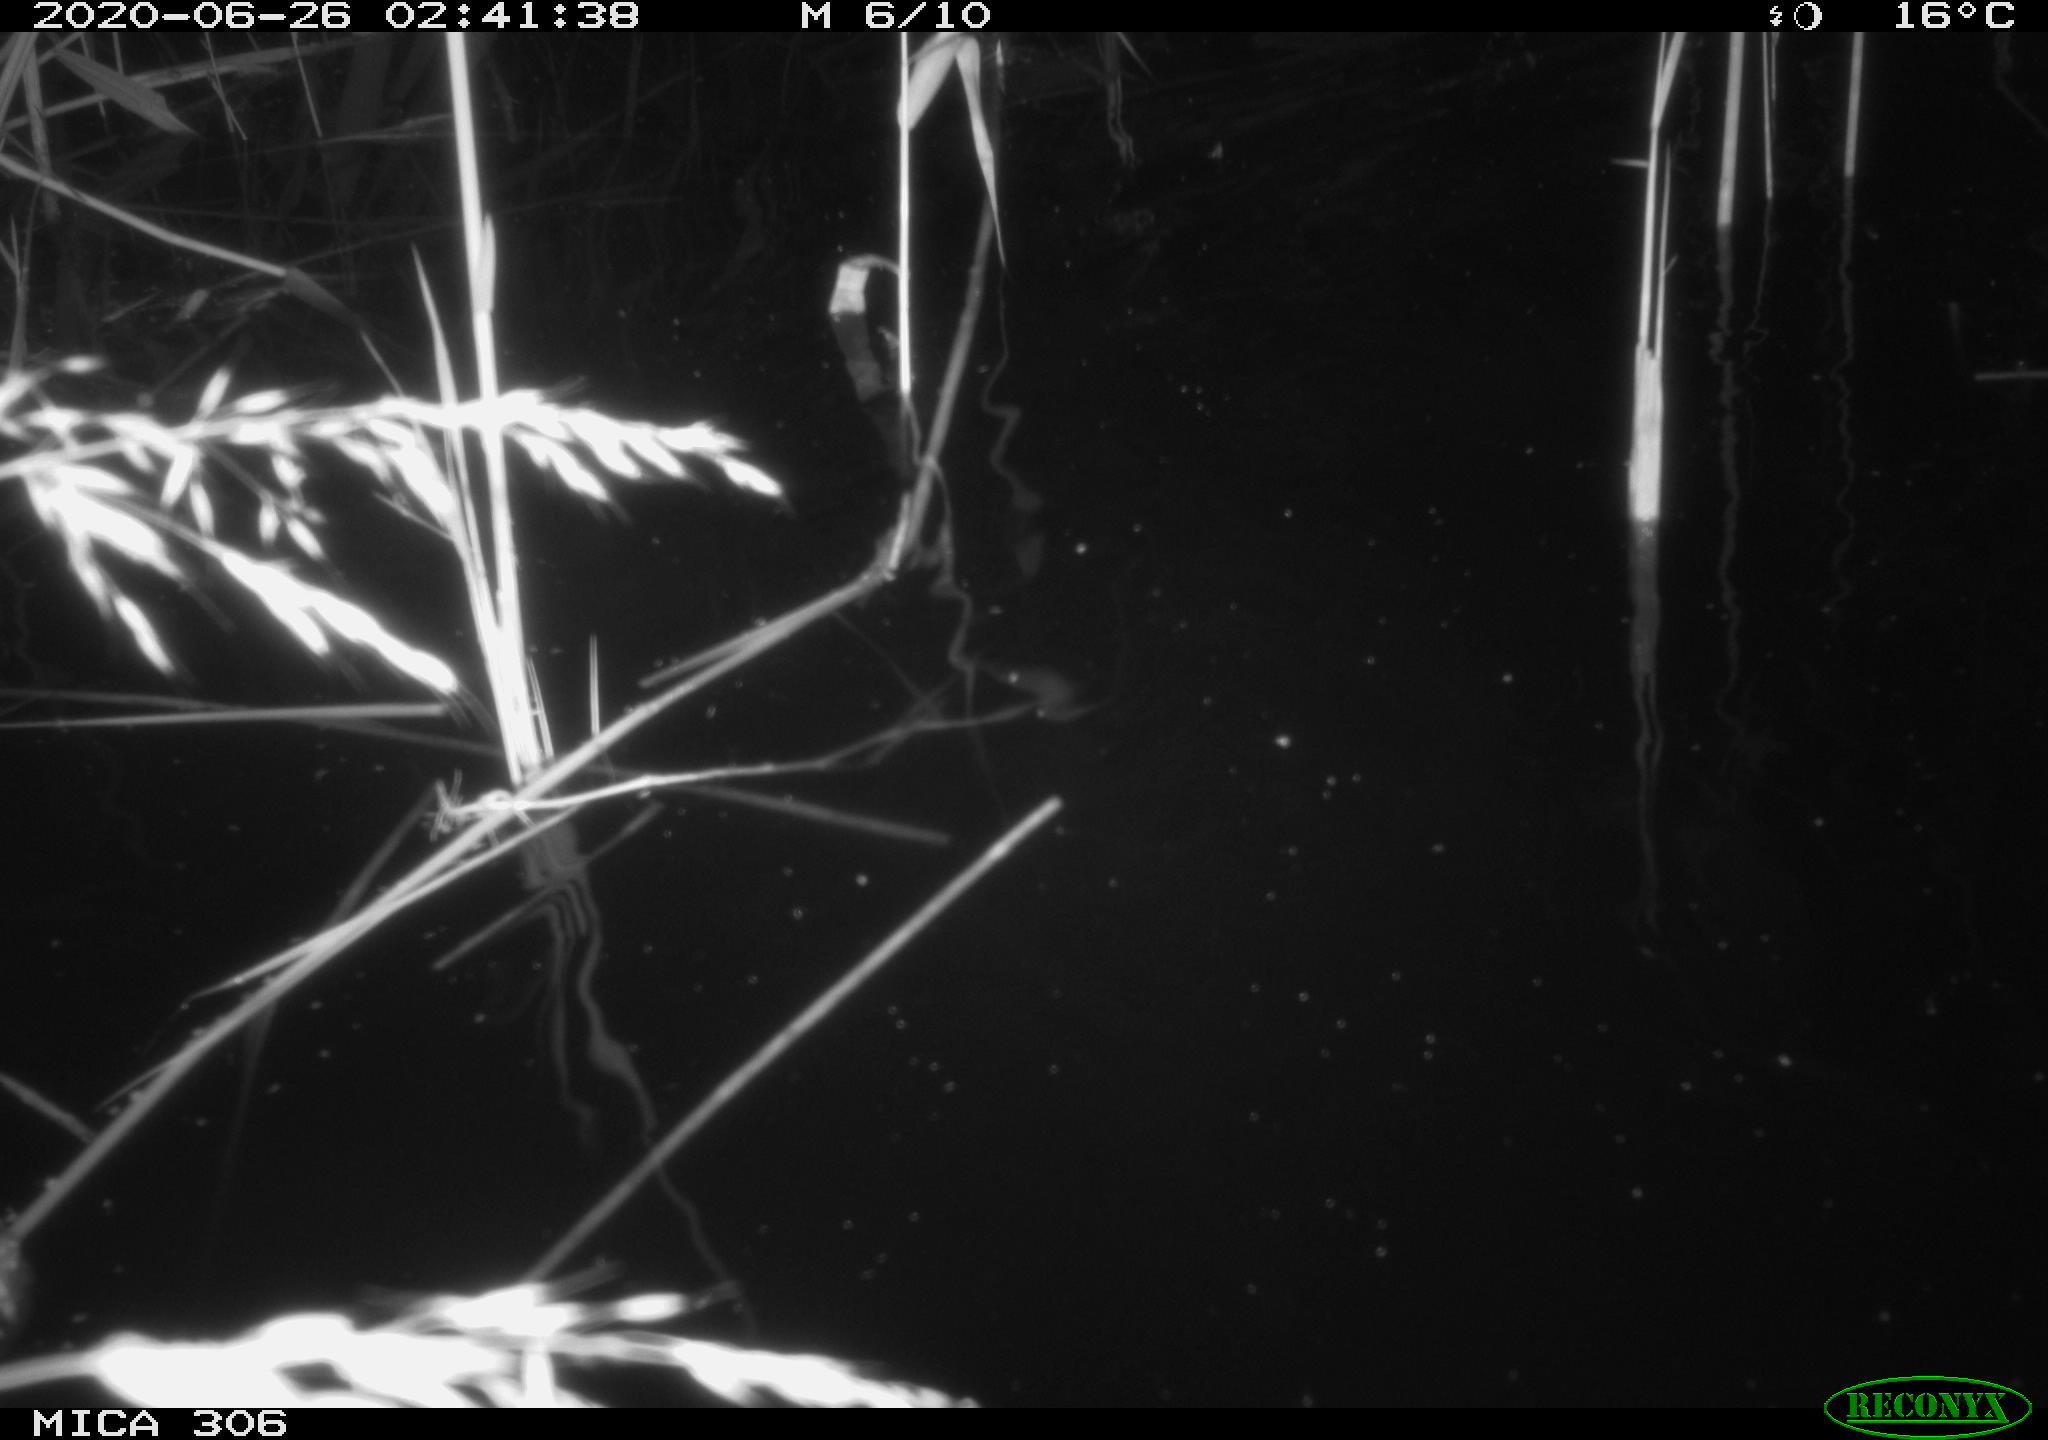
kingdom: Animalia
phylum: Chordata
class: Mammalia
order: Rodentia
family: Muridae
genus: Rattus
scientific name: Rattus norvegicus
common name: Brown rat
